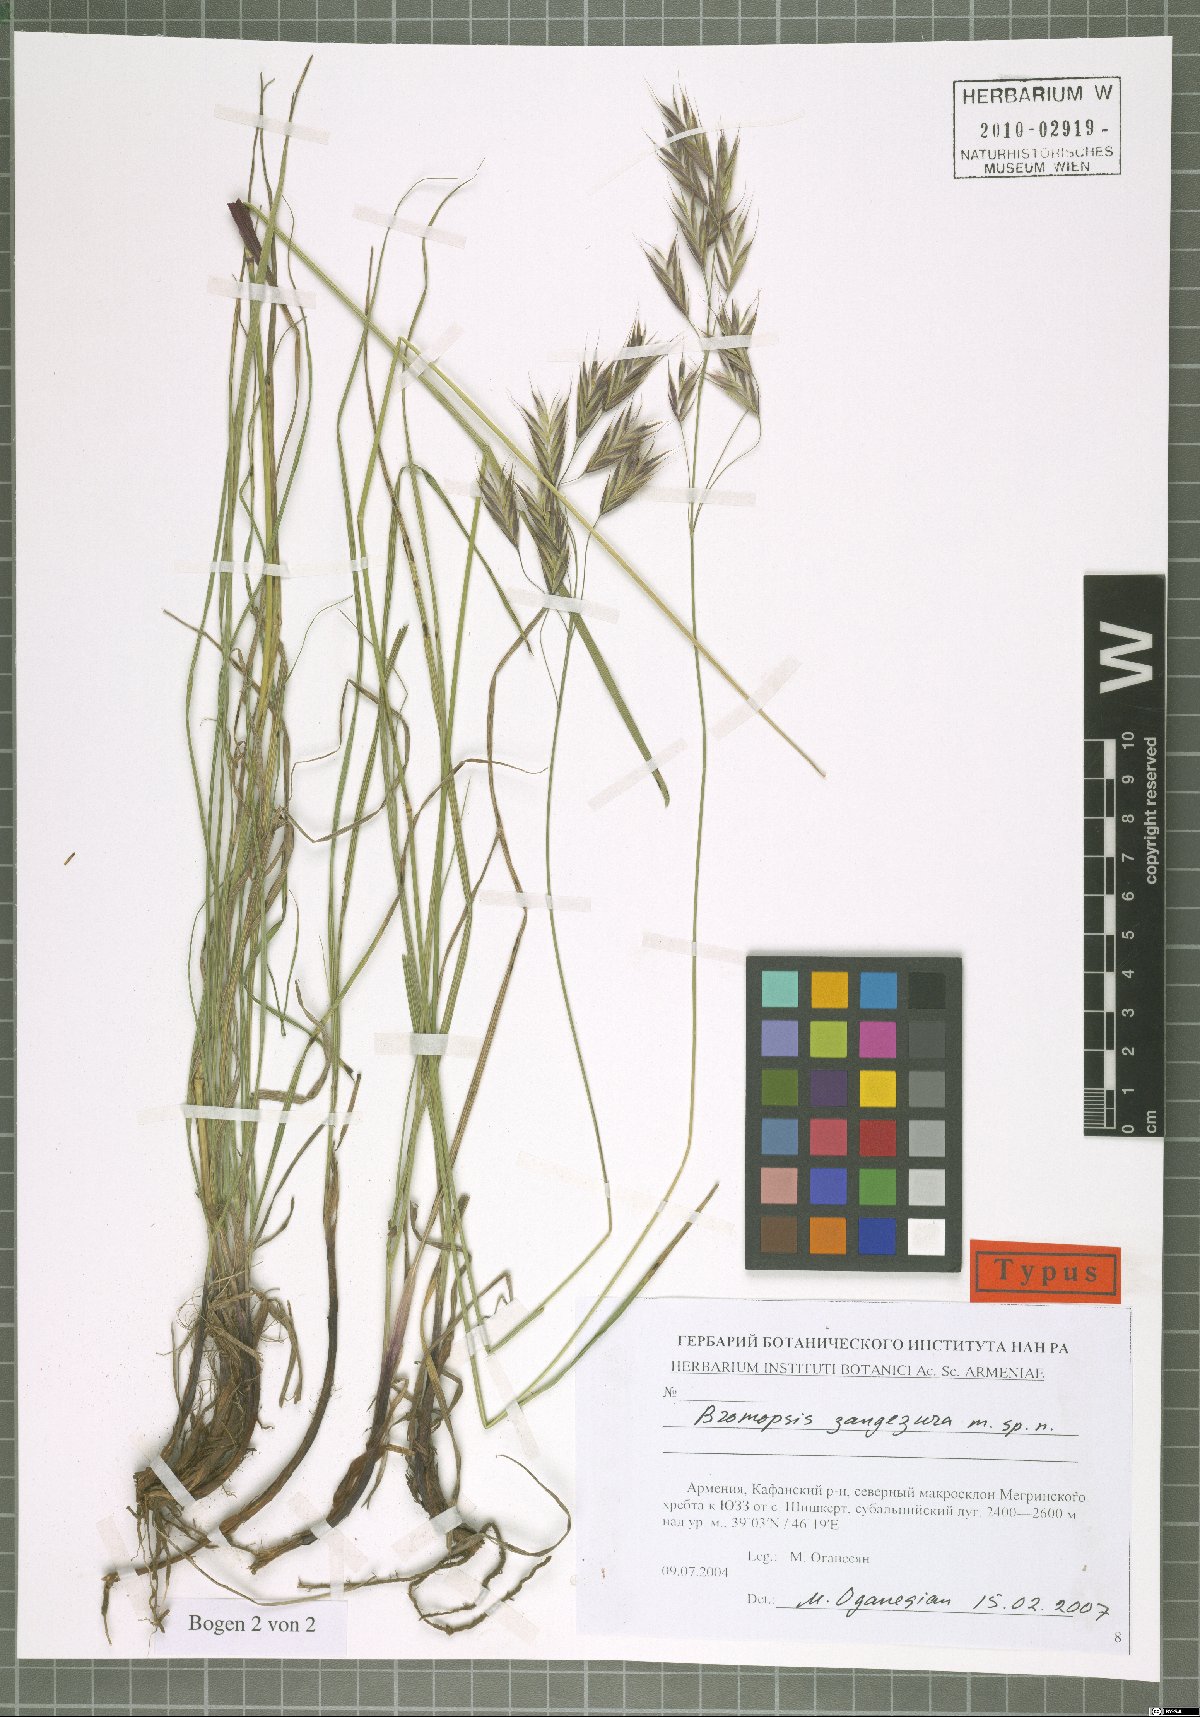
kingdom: Plantae
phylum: Tracheophyta
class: Liliopsida
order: Poales
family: Poaceae
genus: Bromus
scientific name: Bromus erectus
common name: Erect brome
